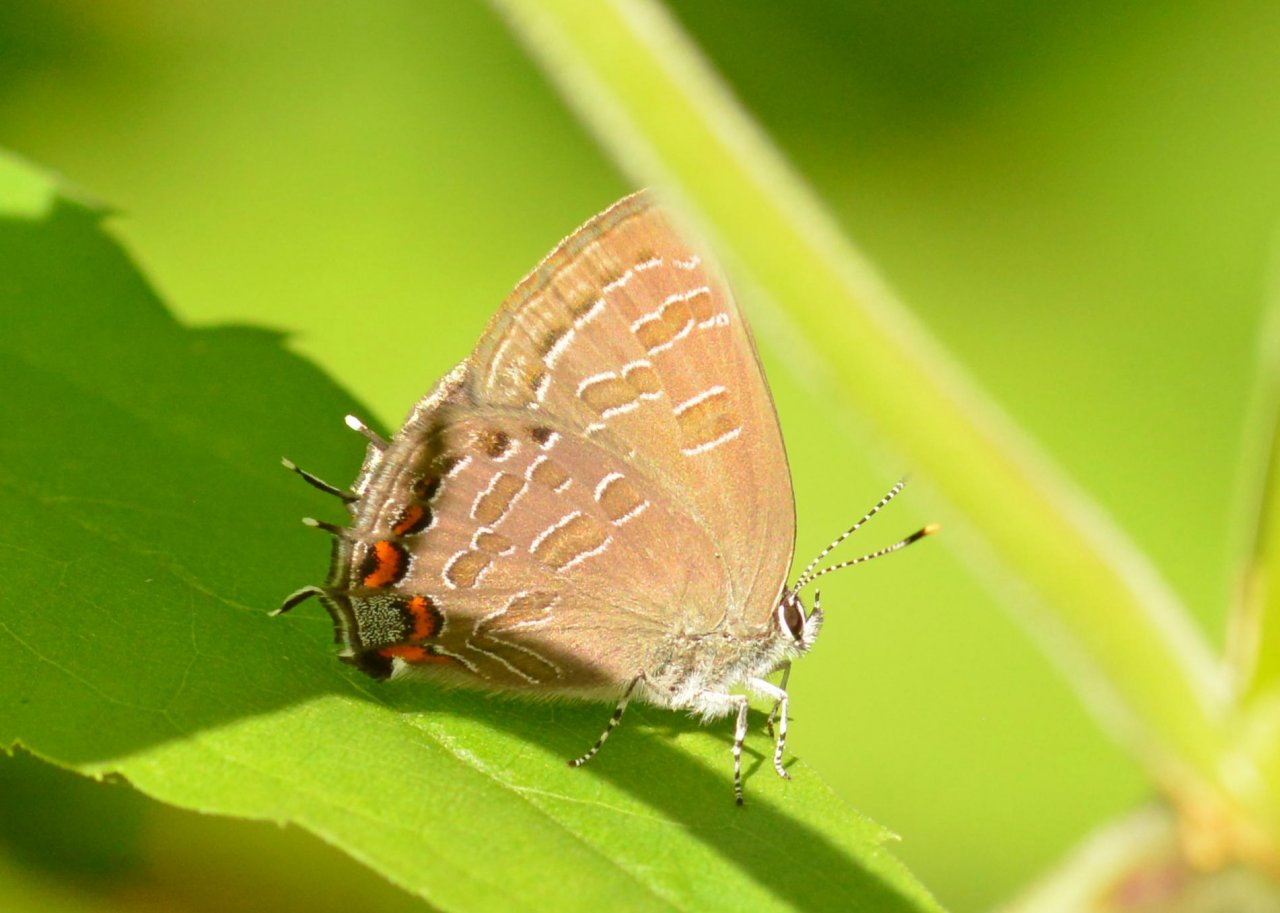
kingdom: Animalia
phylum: Arthropoda
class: Insecta
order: Lepidoptera
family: Lycaenidae
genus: Satyrium
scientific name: Satyrium liparops
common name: Striped Hairstreak
